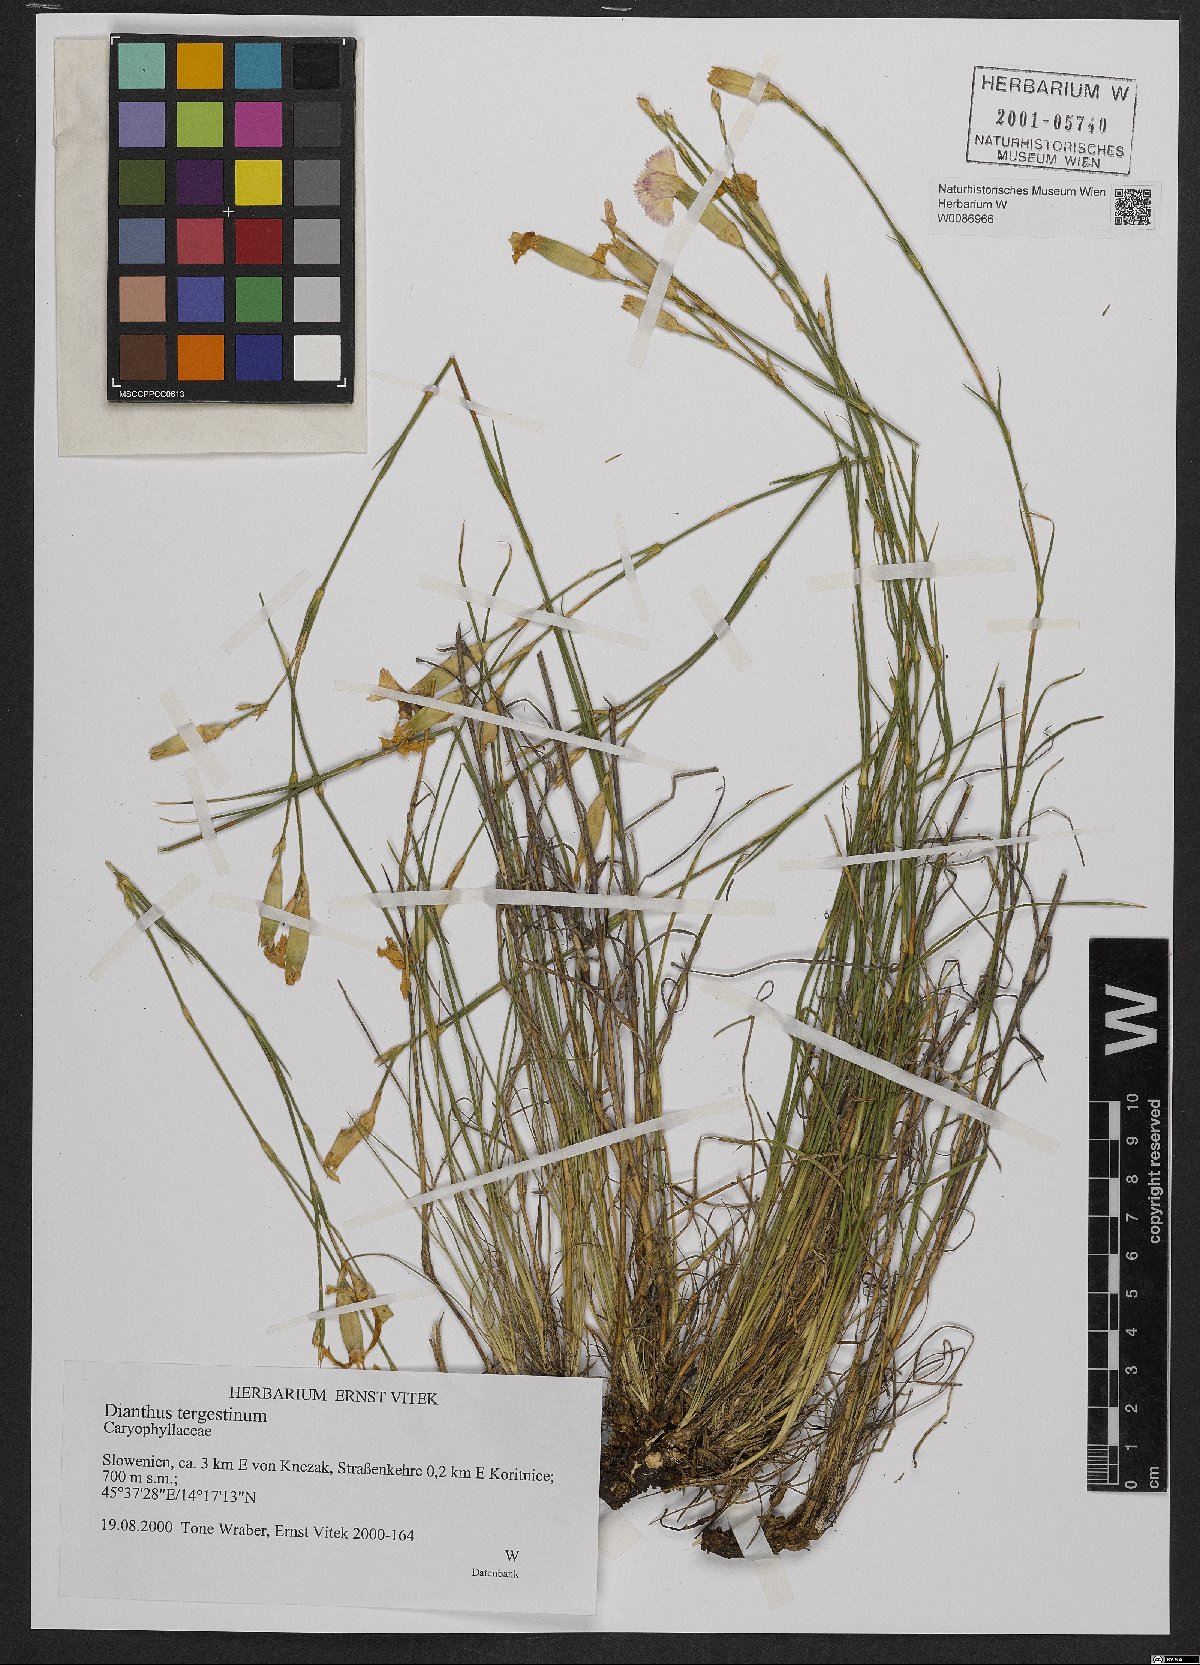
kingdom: Plantae
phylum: Tracheophyta
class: Magnoliopsida
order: Caryophyllales
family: Caryophyllaceae
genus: Dianthus
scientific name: Dianthus sylvestris
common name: Wood pink
